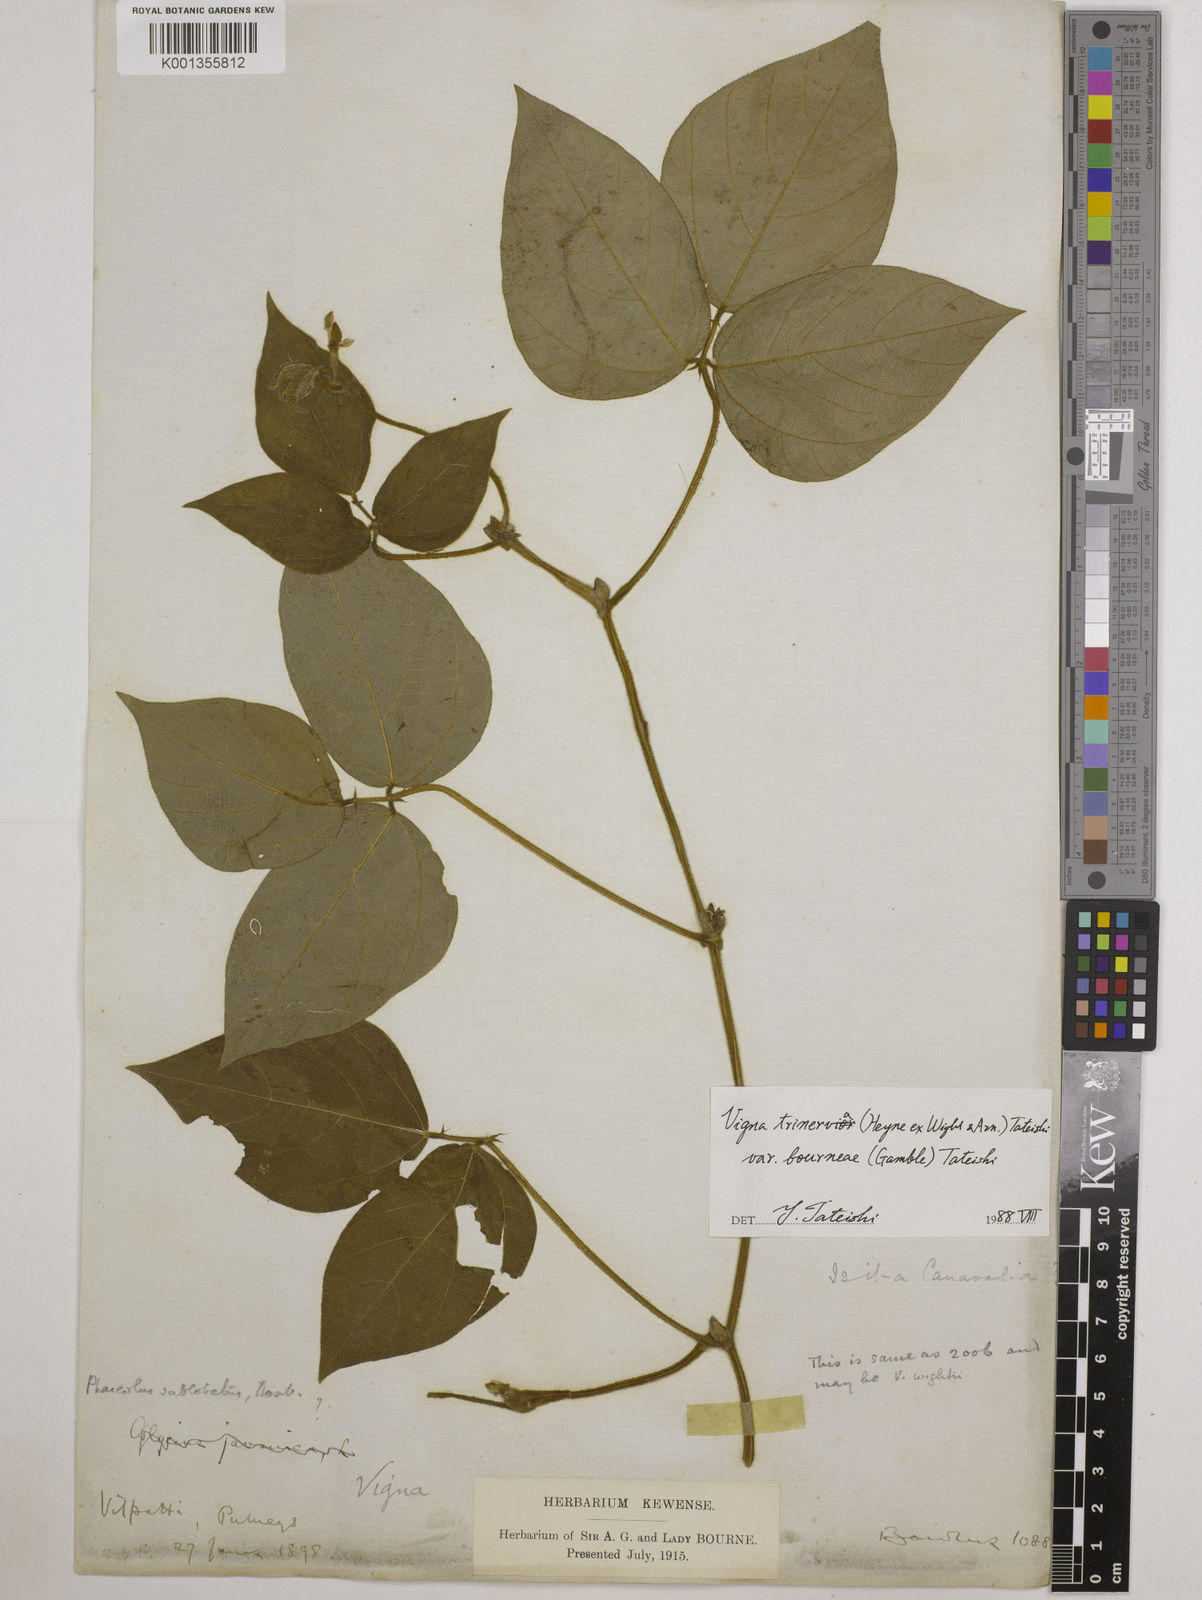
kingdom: Plantae
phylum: Tracheophyta
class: Magnoliopsida
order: Fabales
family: Fabaceae
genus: Vigna
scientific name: Vigna radiata
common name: Mung-bean
